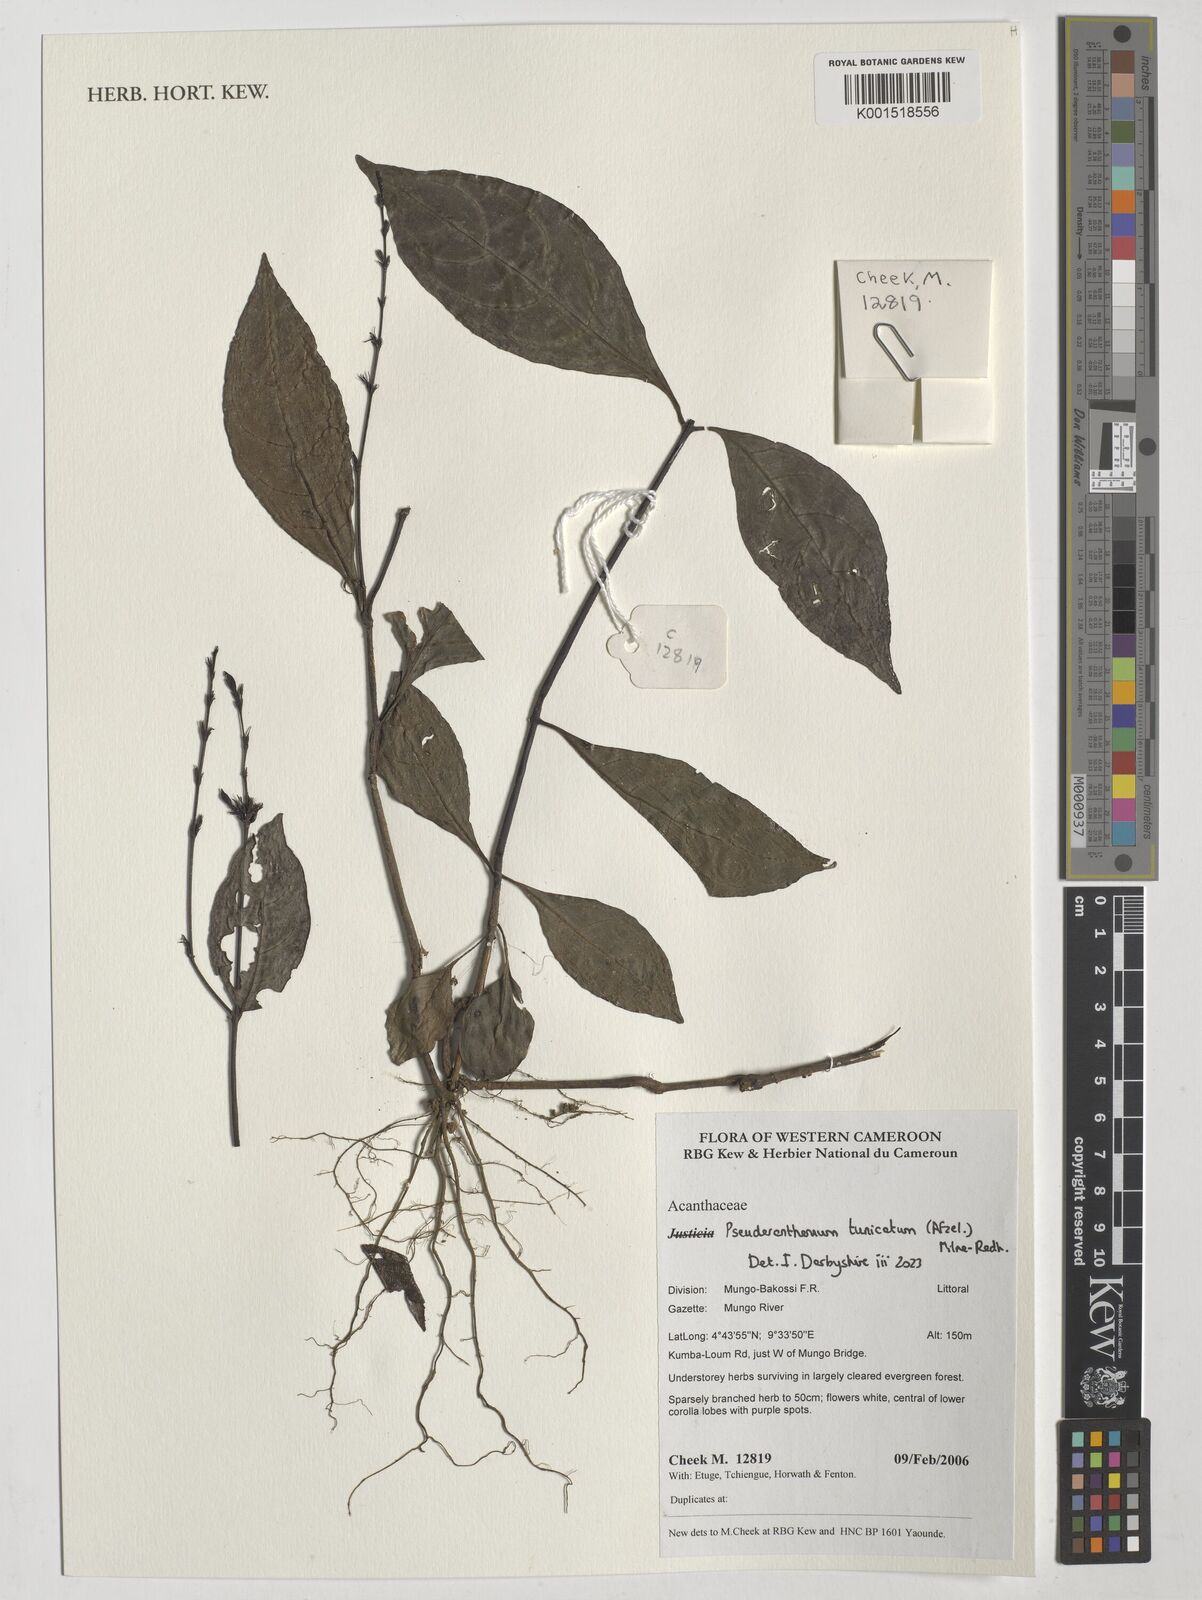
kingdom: Plantae
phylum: Tracheophyta
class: Magnoliopsida
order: Lamiales
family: Acanthaceae
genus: Pseuderanthemum
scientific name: Pseuderanthemum tunicatum
